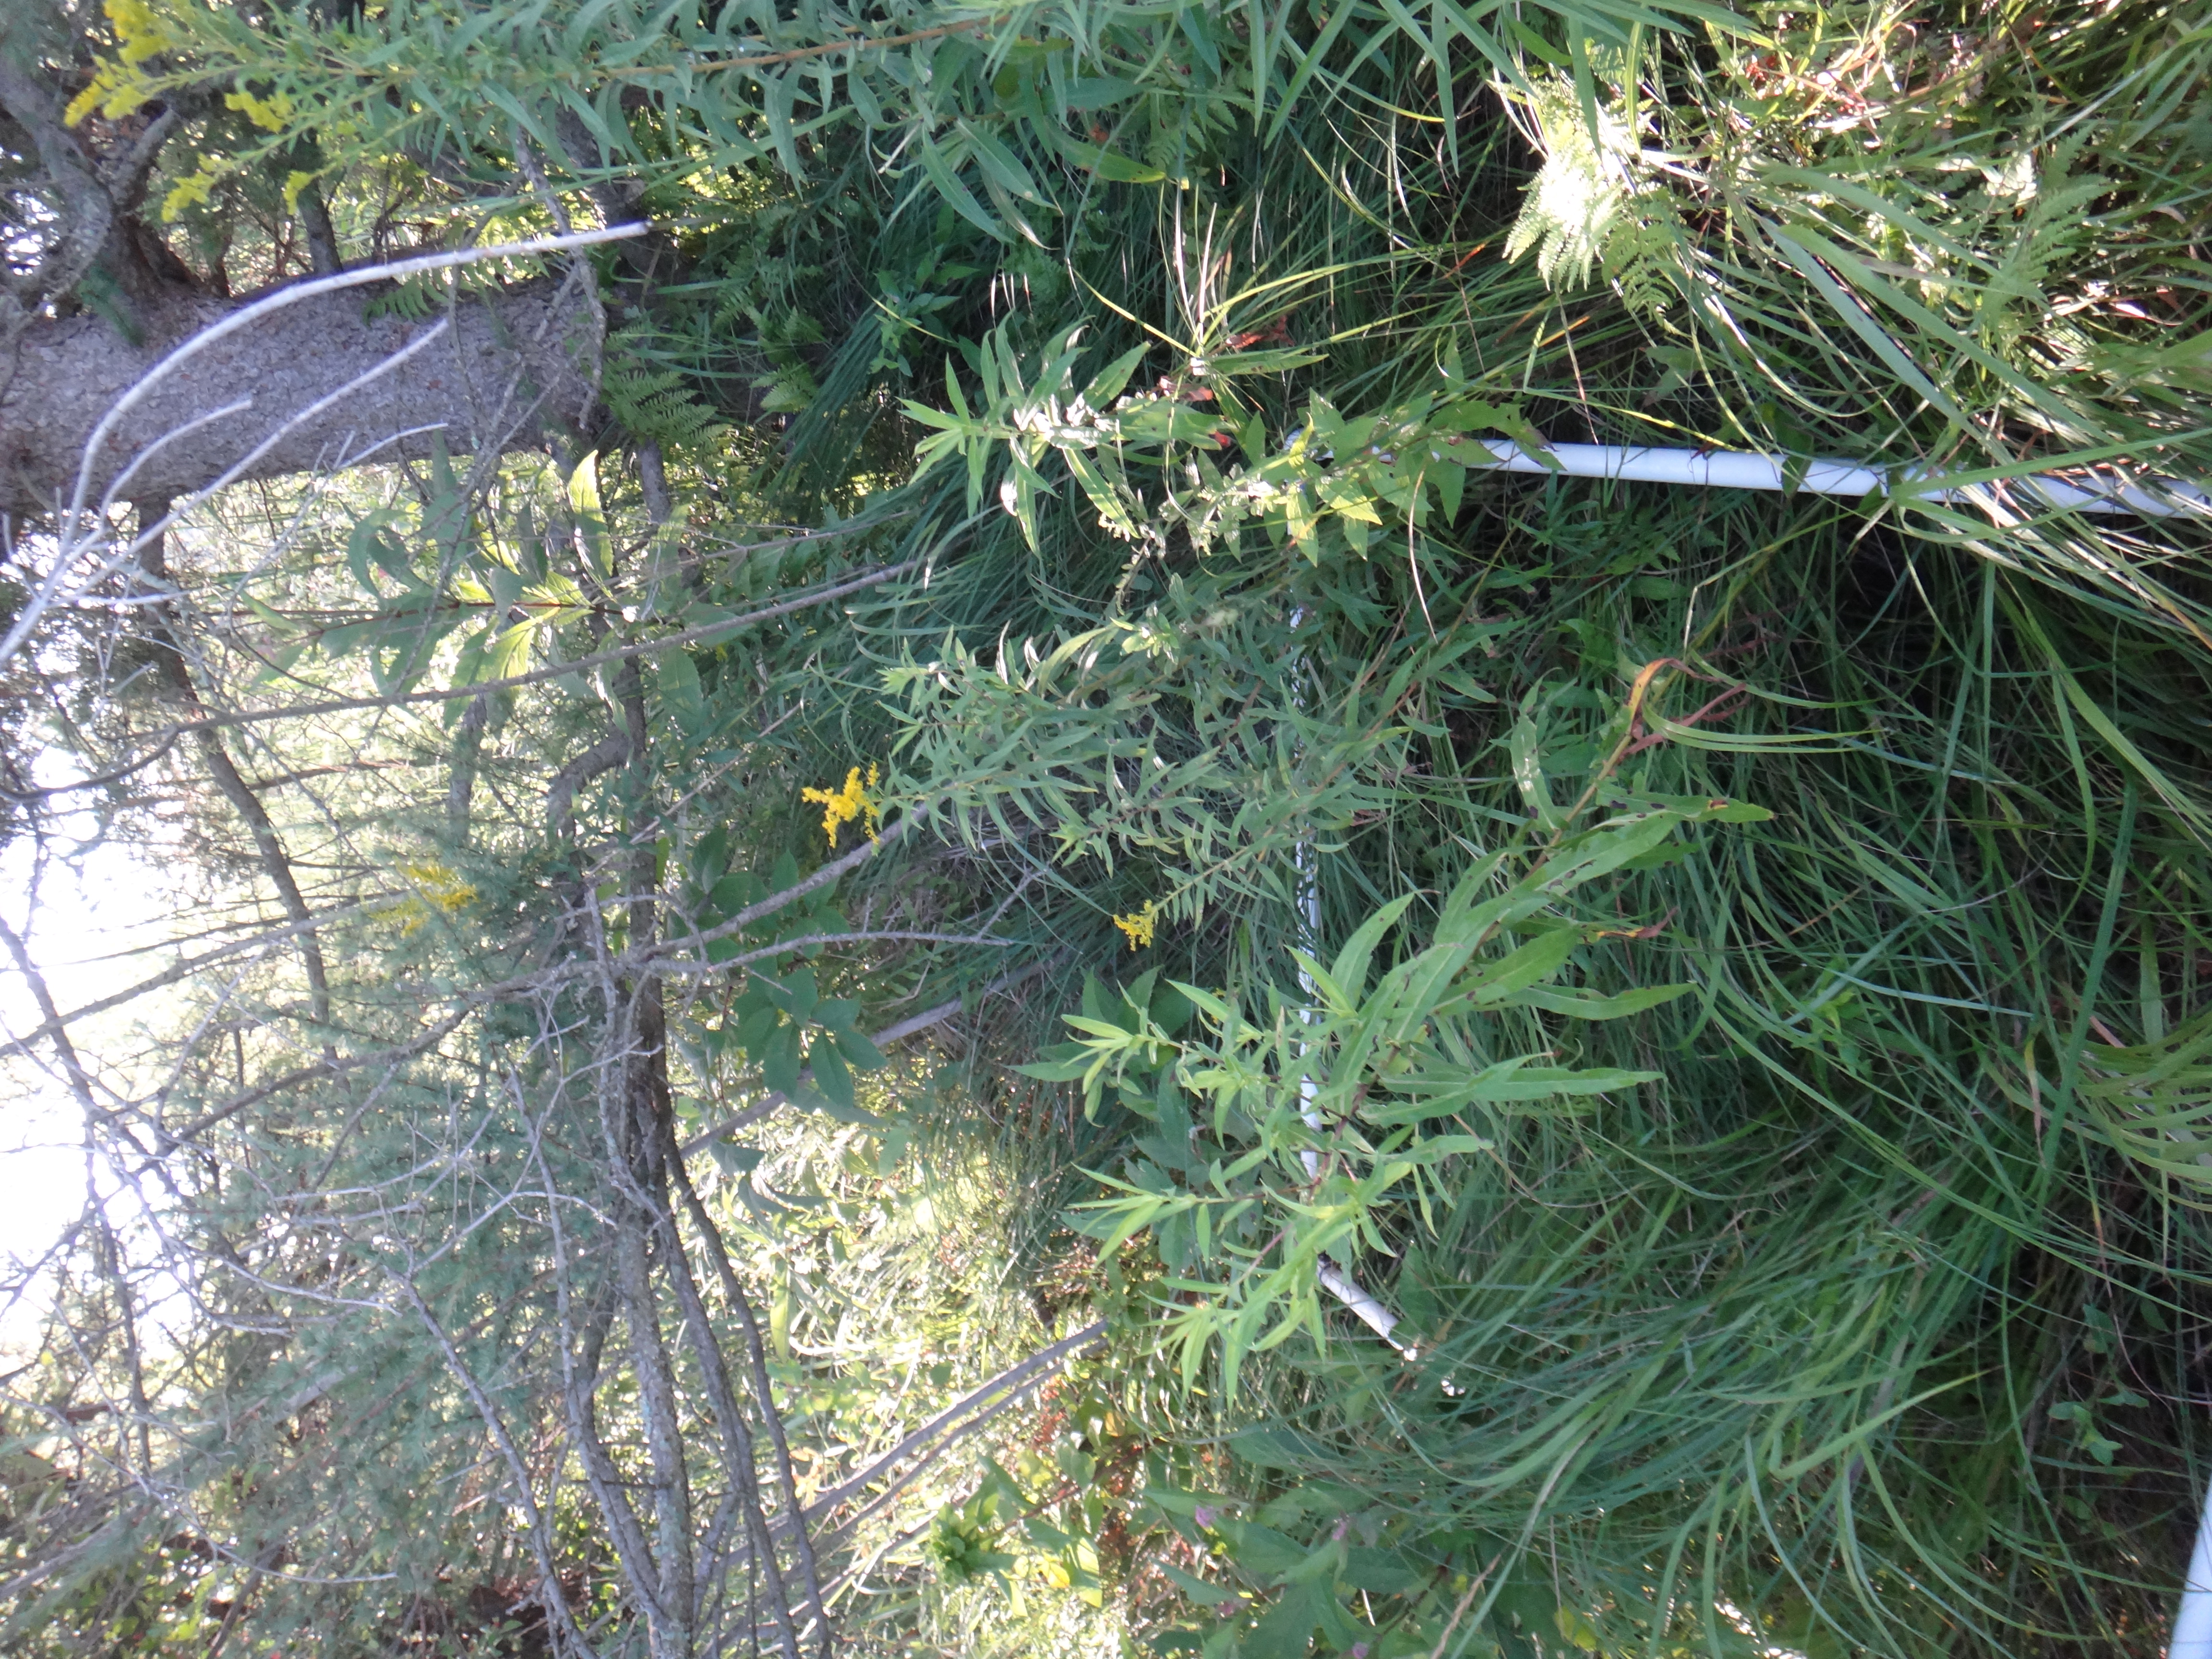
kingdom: Plantae
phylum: Tracheophyta
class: Liliopsida
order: Poales
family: Poaceae
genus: Calamagrostis
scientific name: Calamagrostis canadensis
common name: Canada bluejoint
